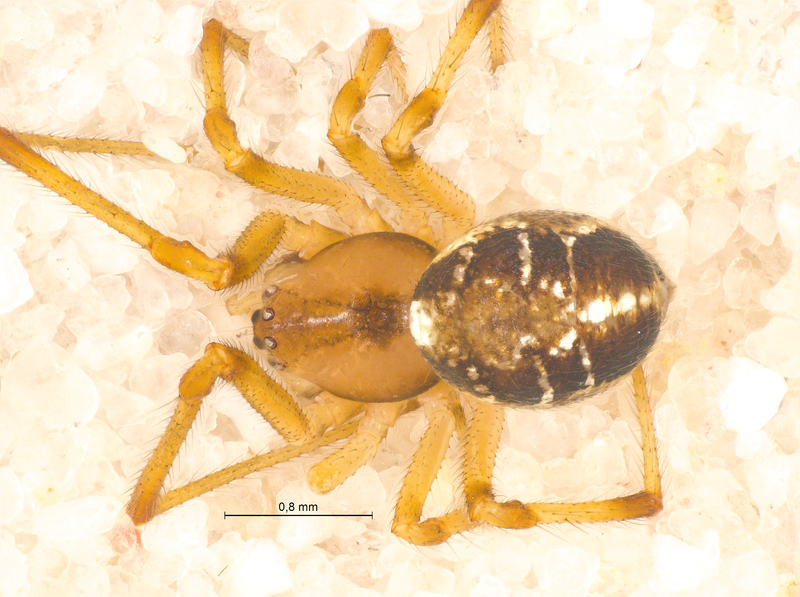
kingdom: Animalia
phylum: Arthropoda
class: Arachnida
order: Araneae
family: Theridiidae
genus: Phylloneta
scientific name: Phylloneta sisyphia
